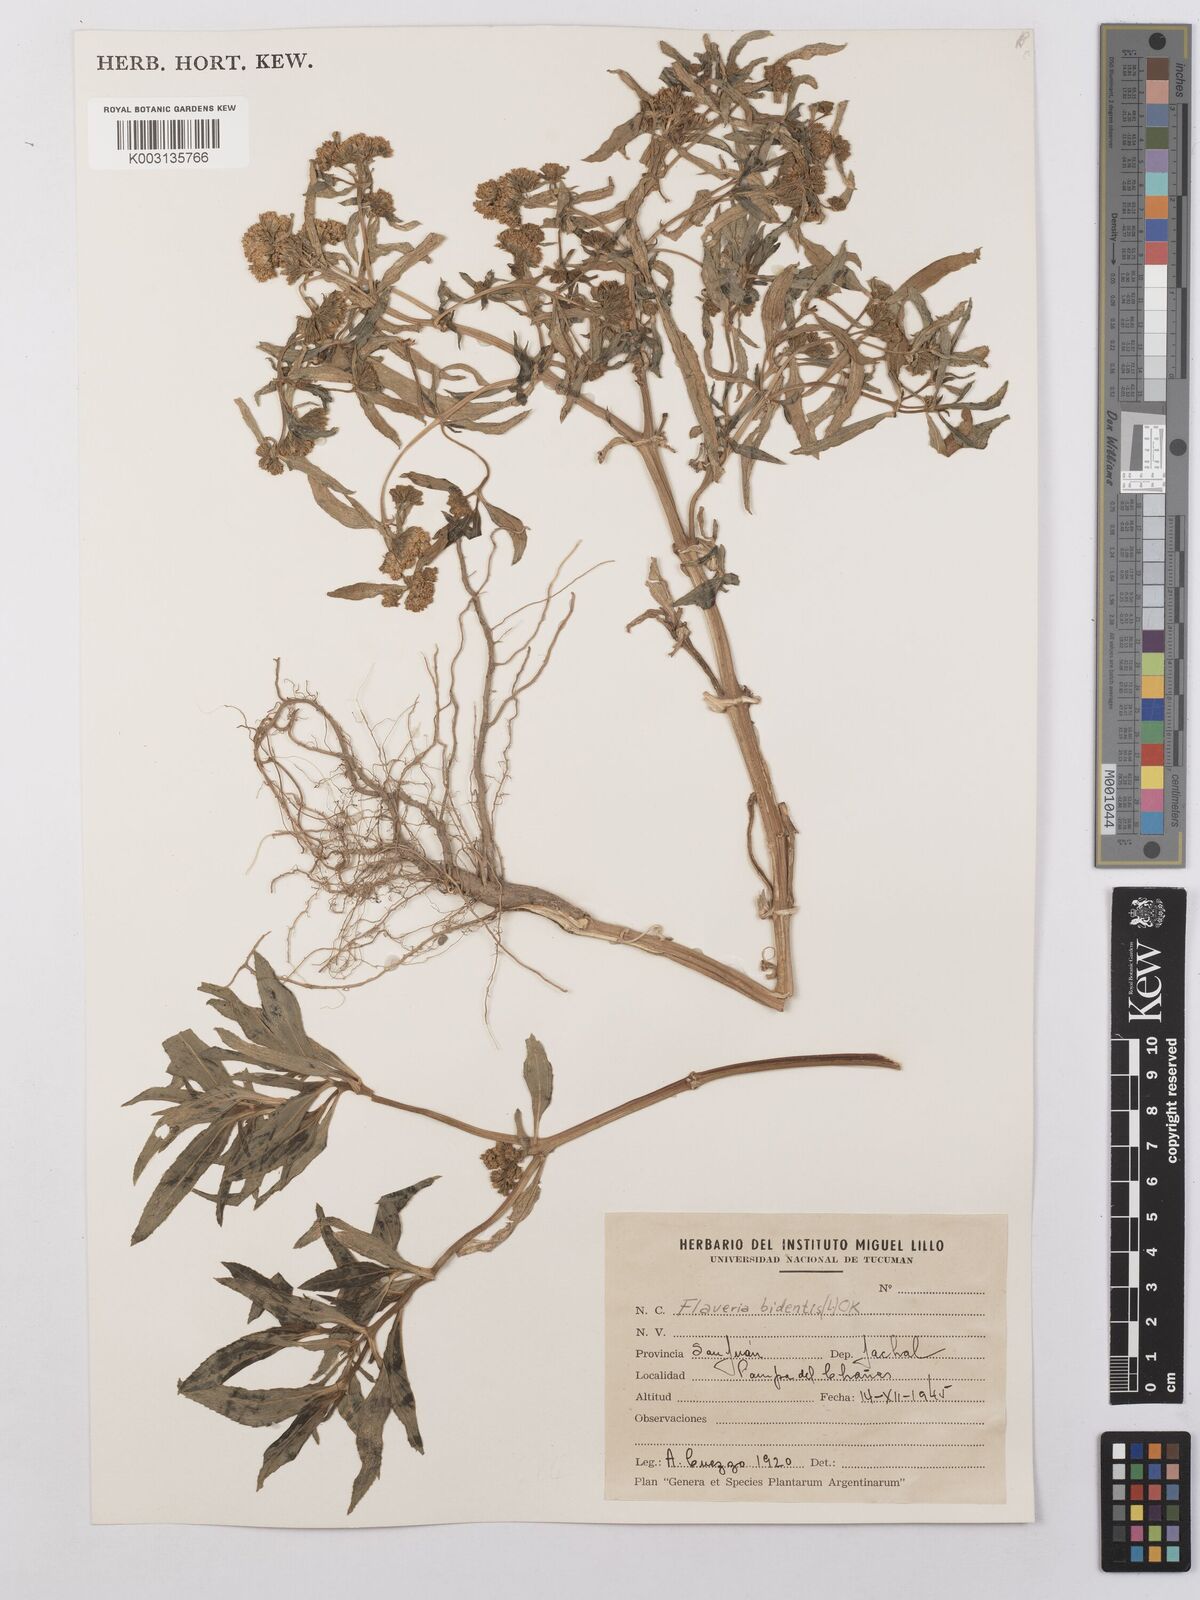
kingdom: Plantae
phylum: Tracheophyta
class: Magnoliopsida
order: Asterales
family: Asteraceae
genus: Flaveria
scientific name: Flaveria bidentis
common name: Coastal plain yellowtops
